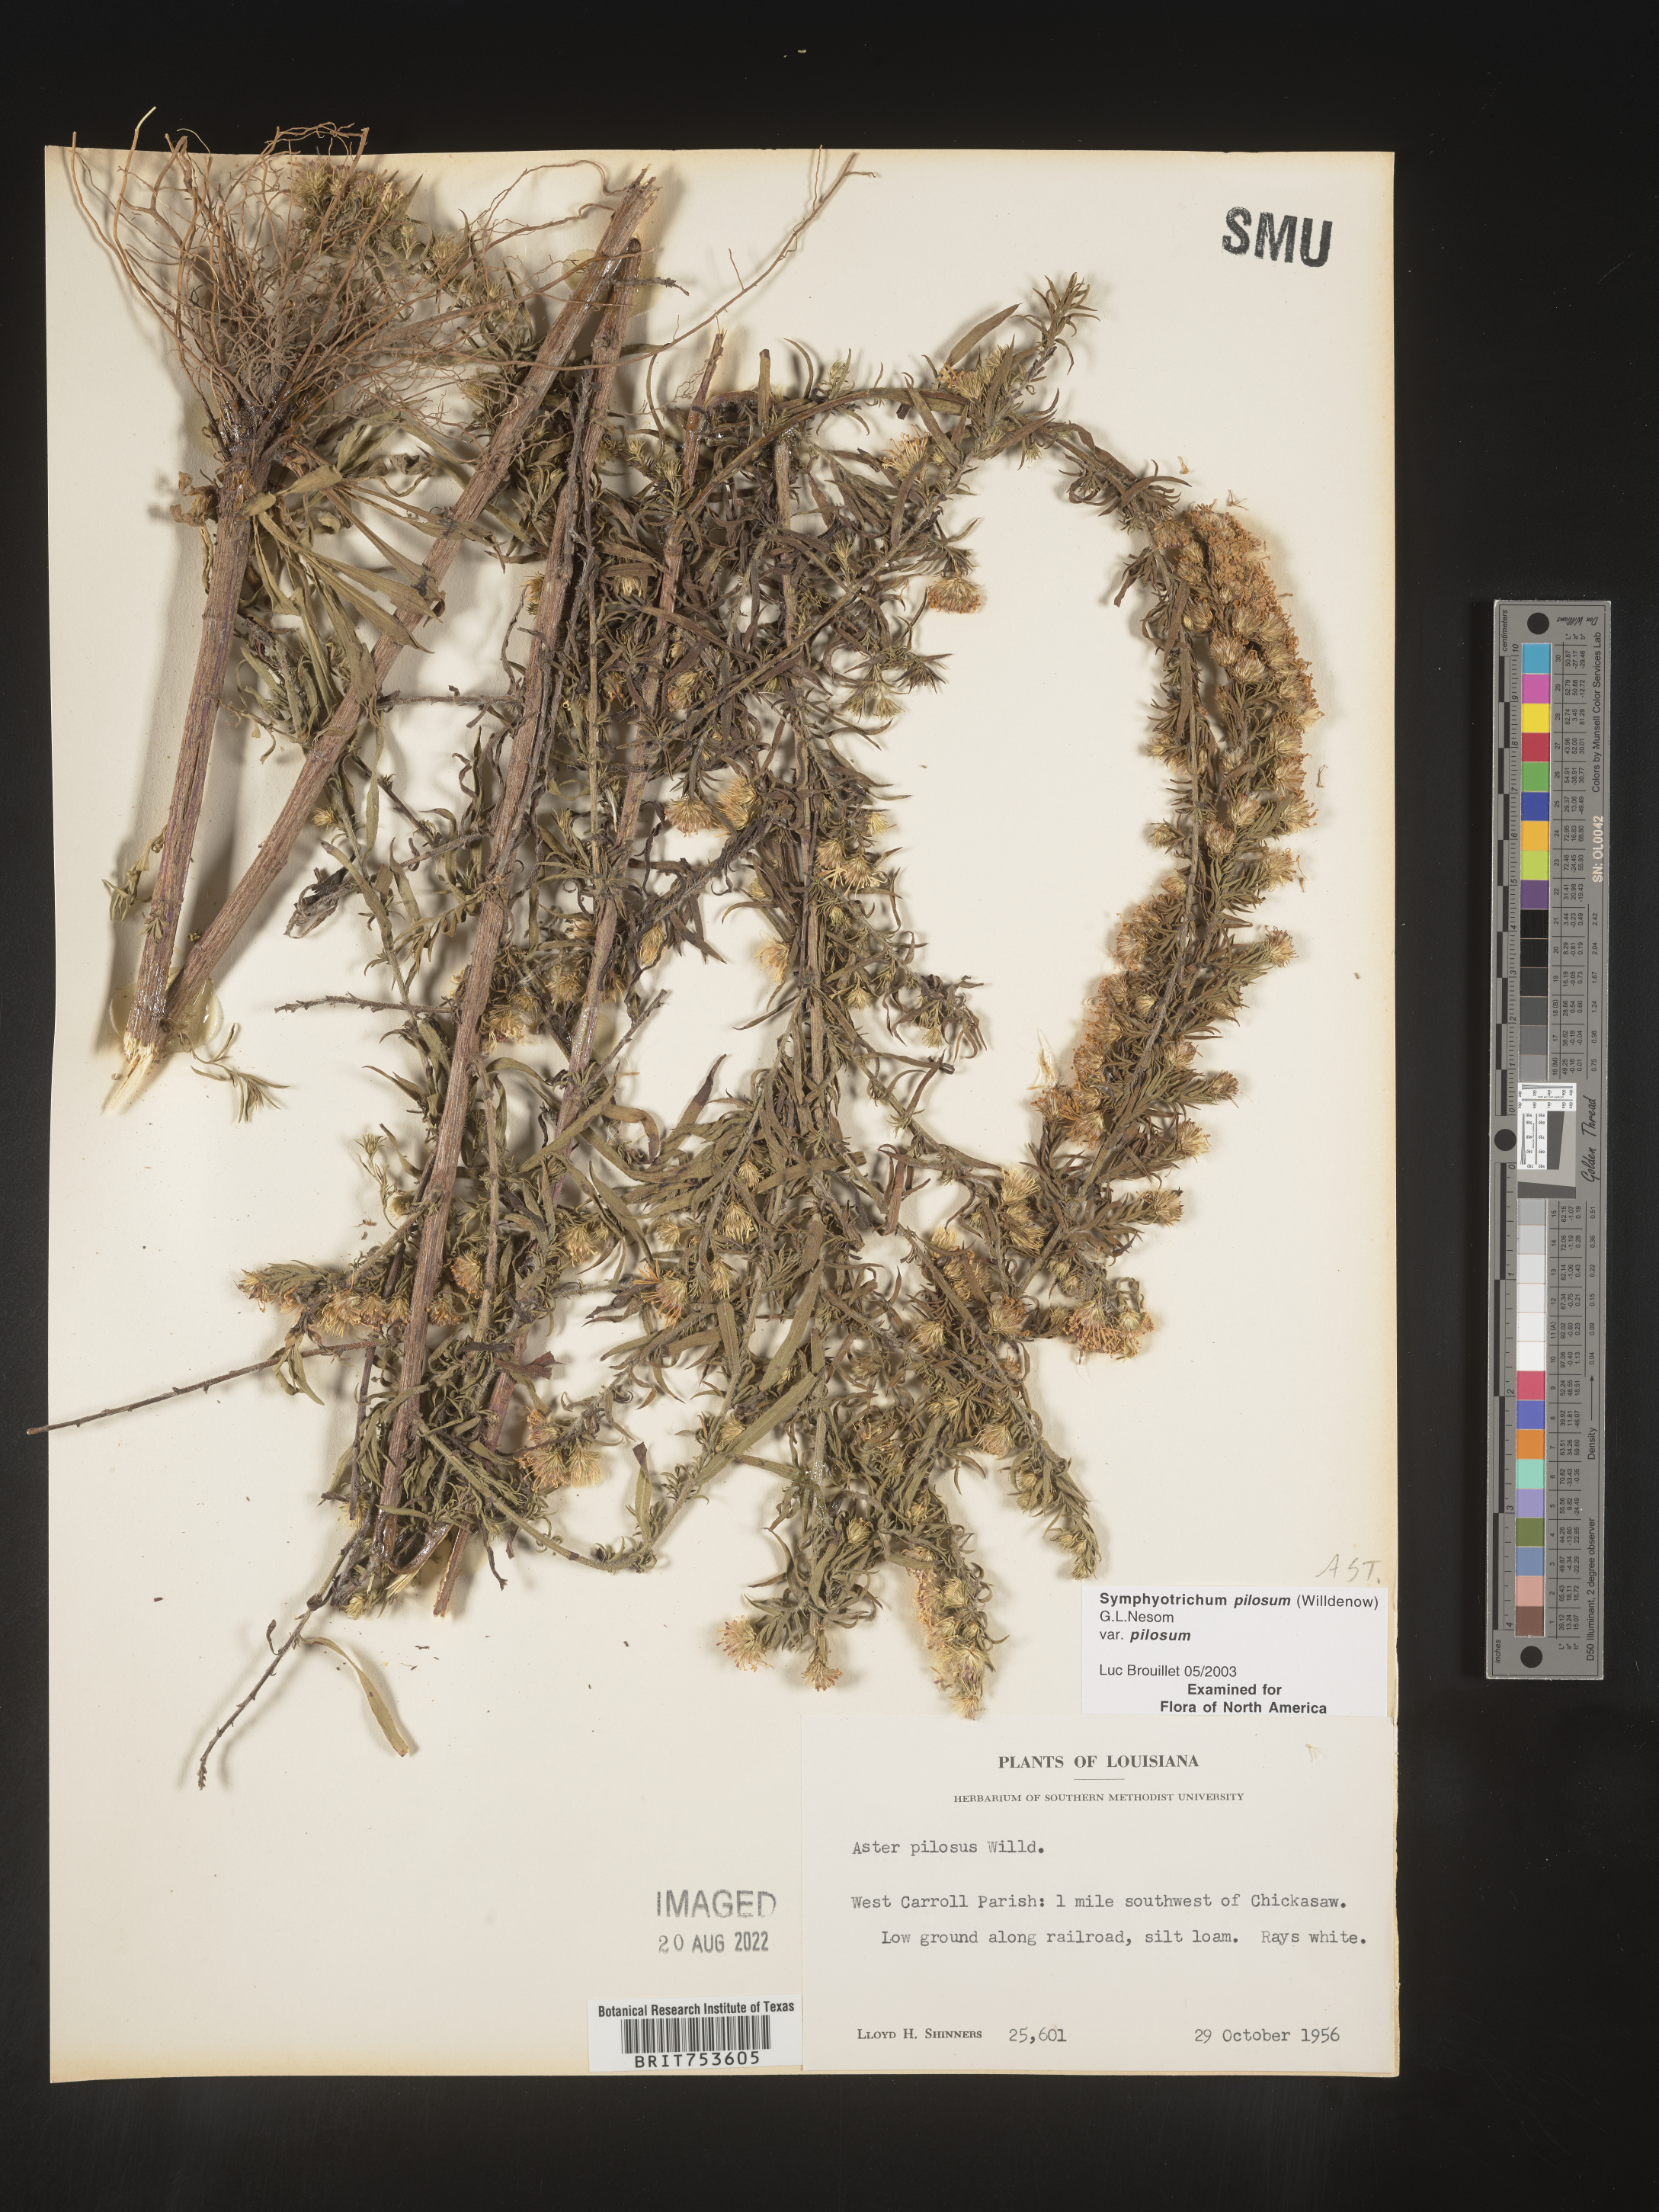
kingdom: Plantae
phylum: Tracheophyta
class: Magnoliopsida
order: Asterales
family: Asteraceae
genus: Symphyotrichum
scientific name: Symphyotrichum pilosum
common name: Awl aster
